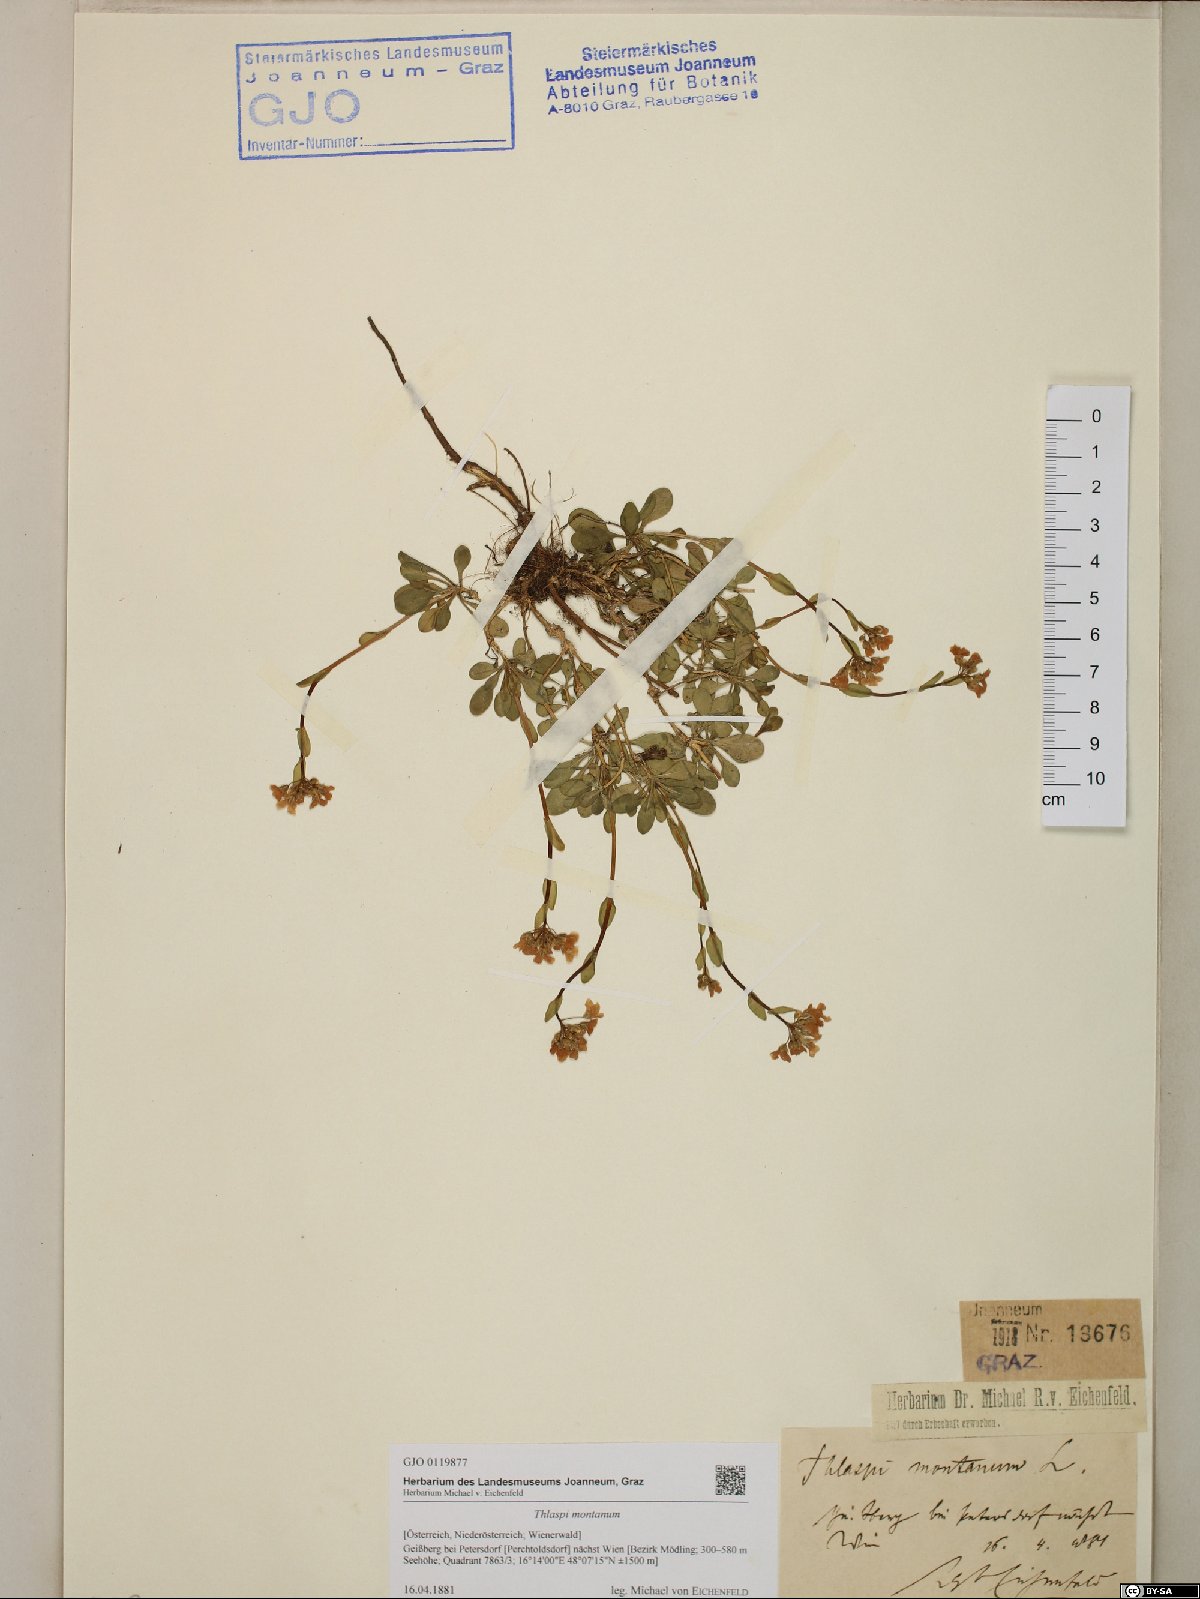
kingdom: Plantae
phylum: Tracheophyta
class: Magnoliopsida
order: Brassicales
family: Brassicaceae
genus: Noccaea
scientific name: Noccaea montana
